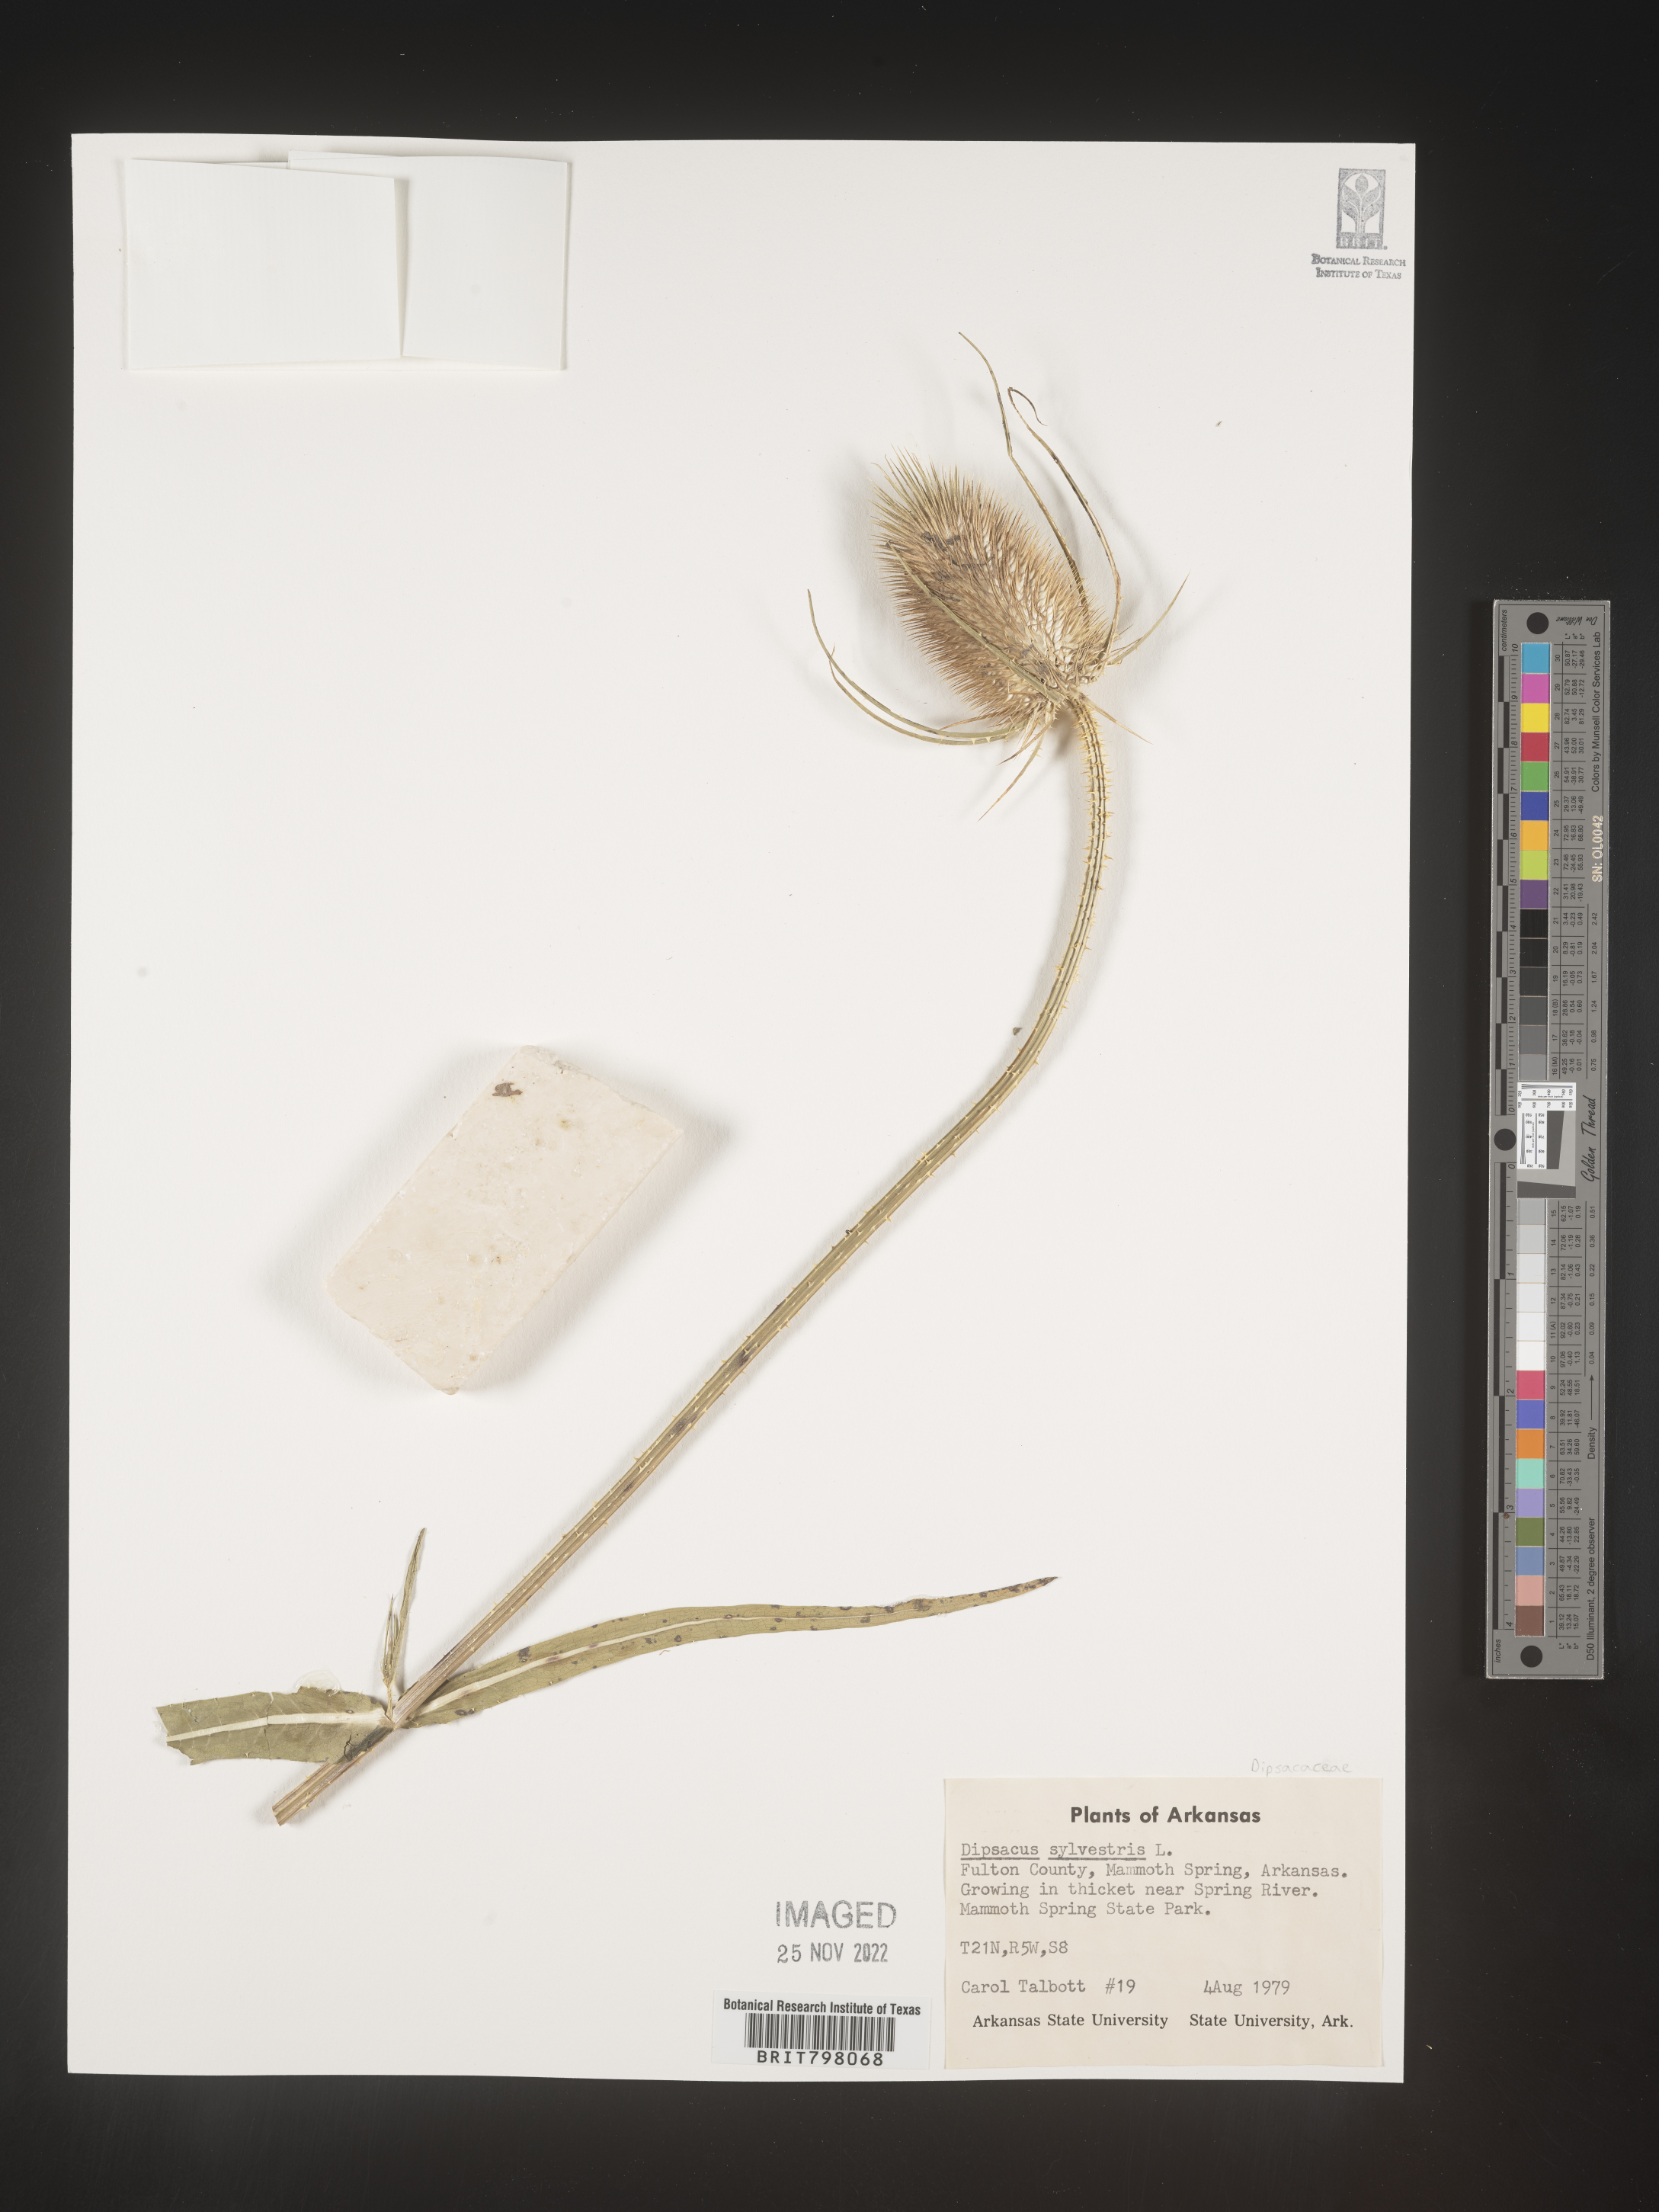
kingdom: Plantae
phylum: Tracheophyta
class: Magnoliopsida
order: Dipsacales
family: Caprifoliaceae
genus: Dipsacus
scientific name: Dipsacus fullonum
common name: Teasel
